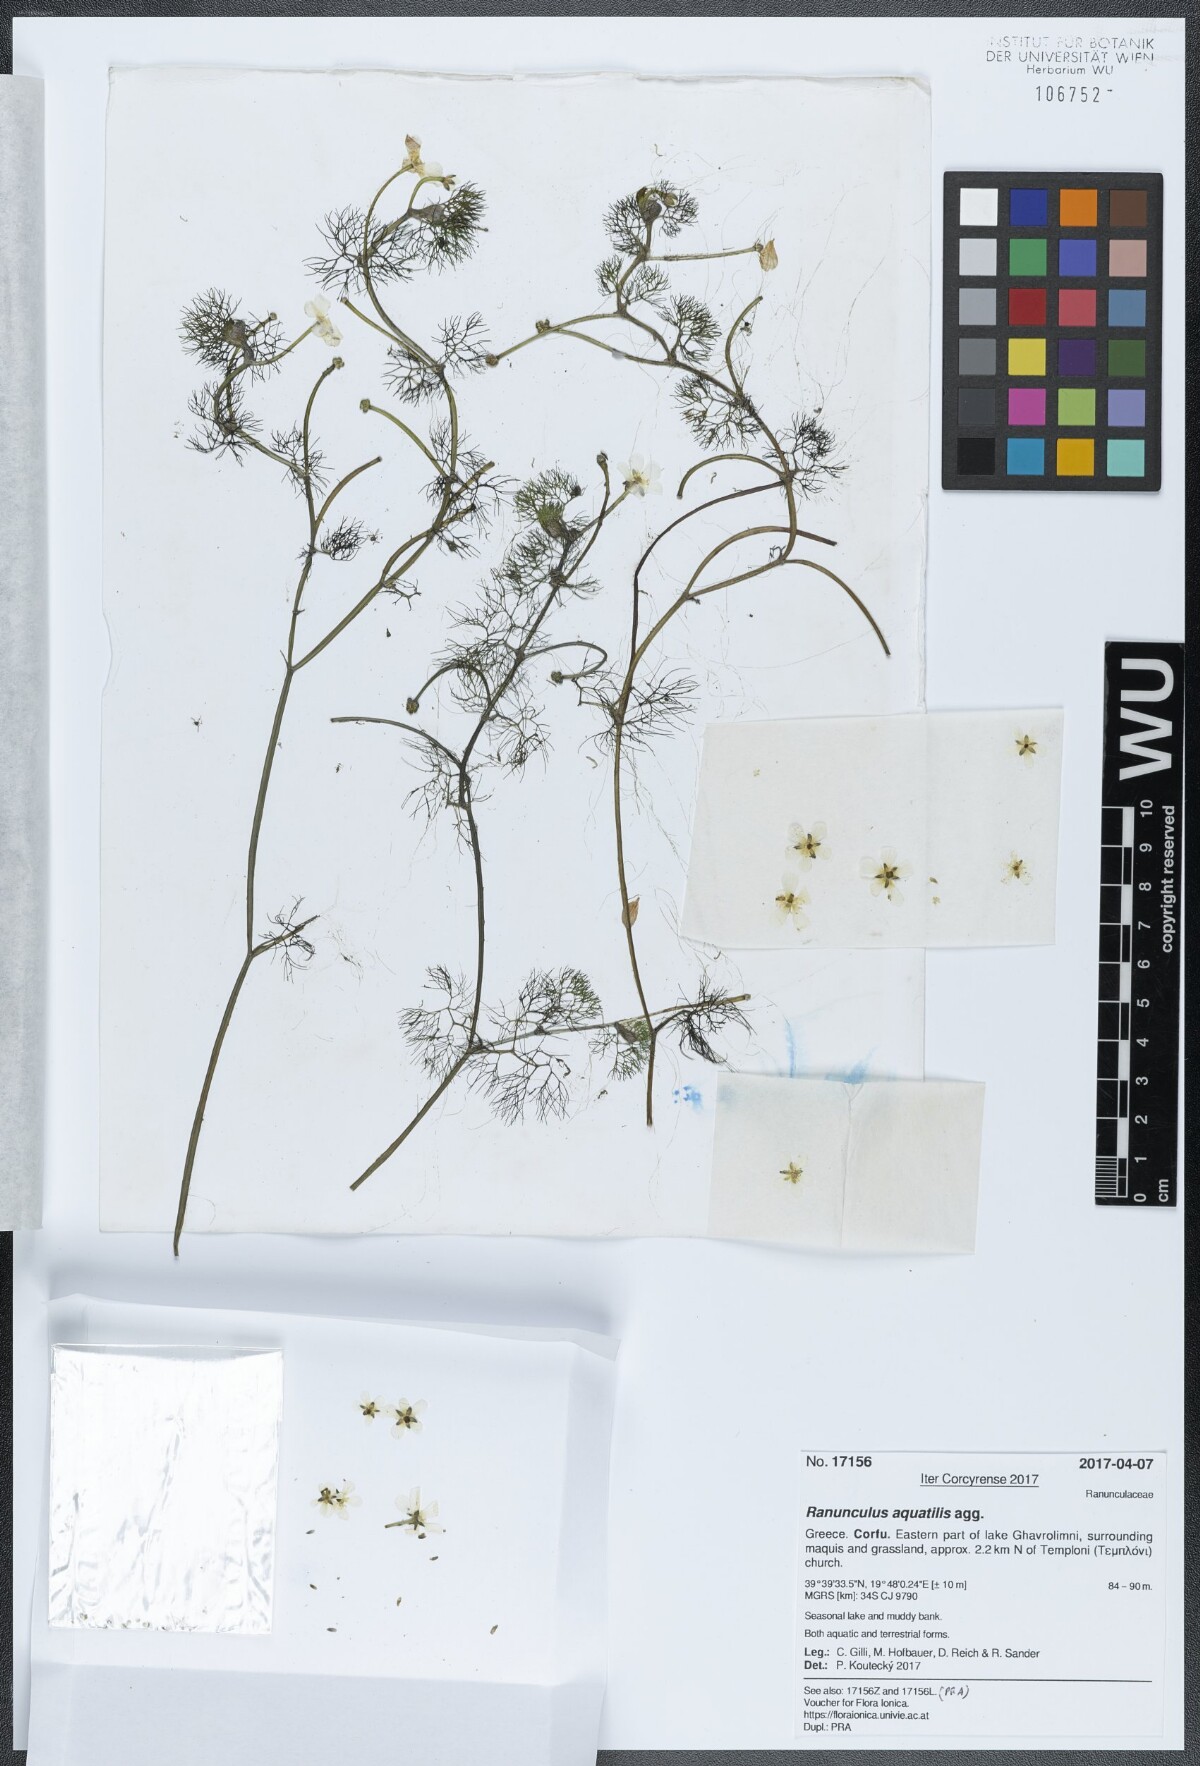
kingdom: Plantae
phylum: Tracheophyta
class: Magnoliopsida
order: Ranunculales
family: Ranunculaceae
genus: Ranunculus
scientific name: Ranunculus aquatilis
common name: Common water-crowfoot
